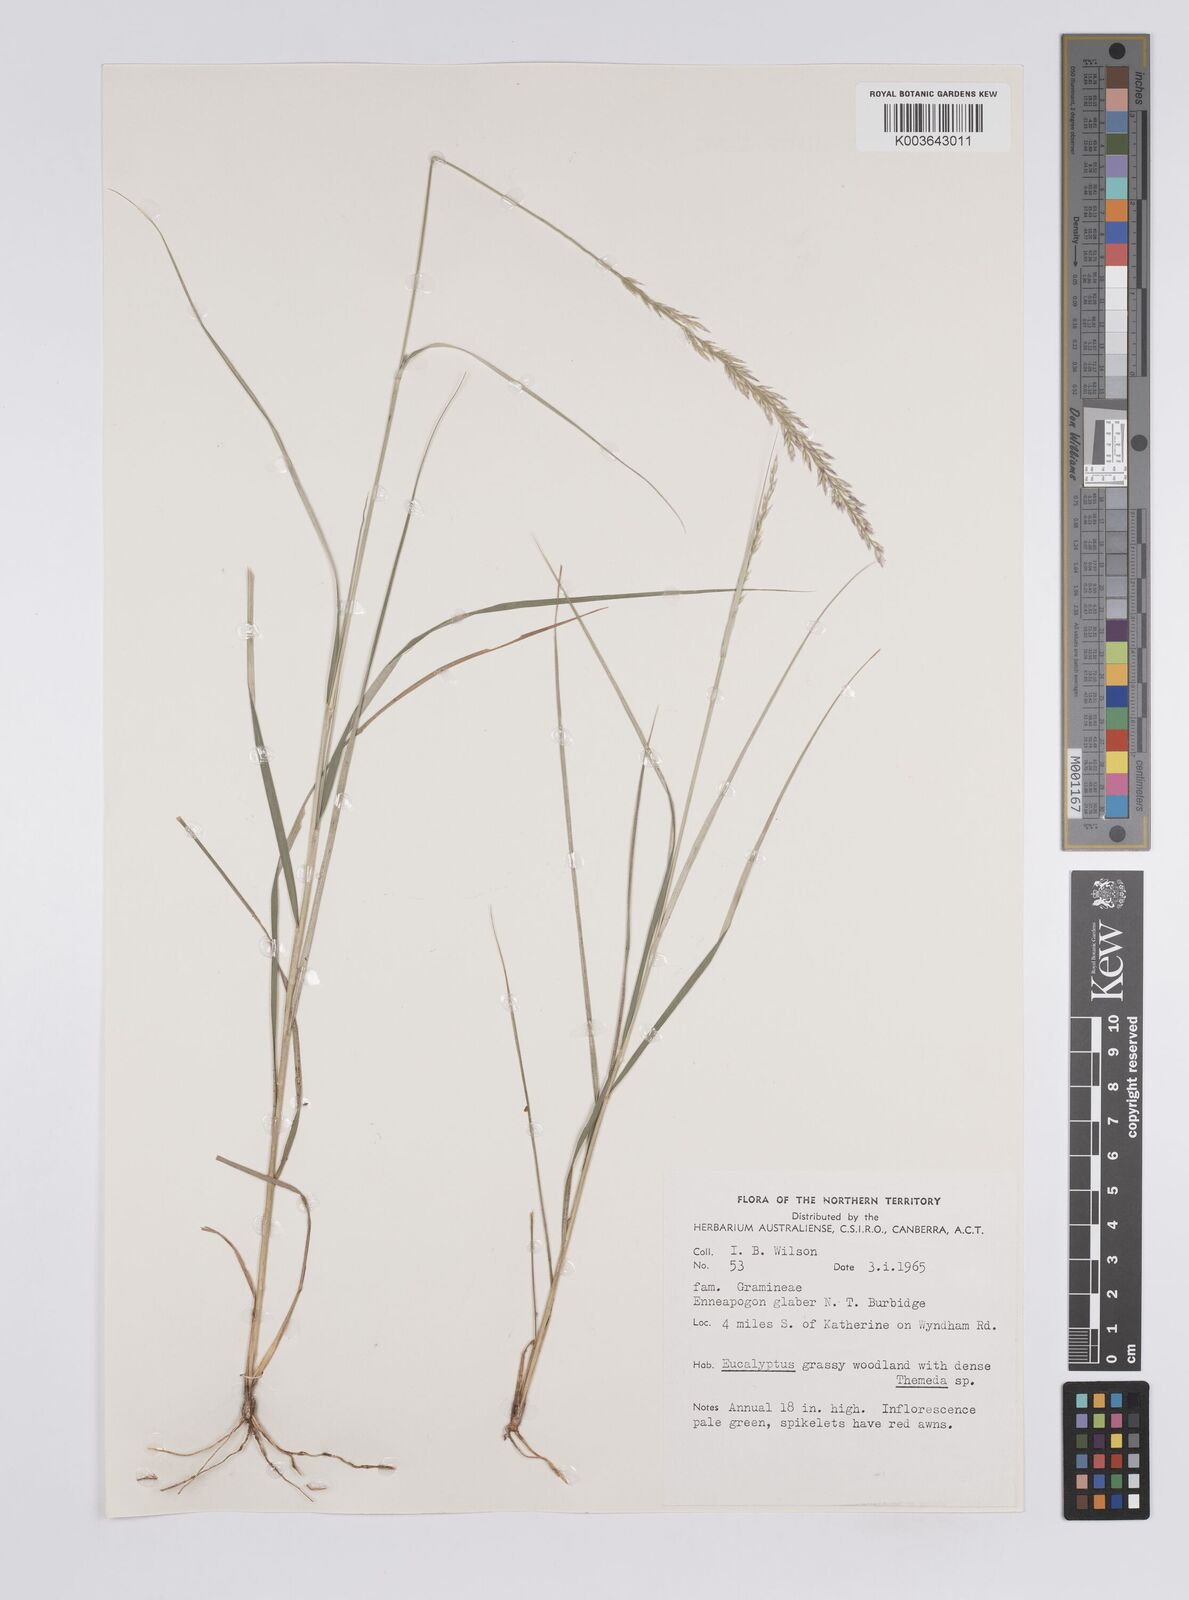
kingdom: Plantae
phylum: Tracheophyta
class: Liliopsida
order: Poales
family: Poaceae
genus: Enneapogon
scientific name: Enneapogon purpurascens
